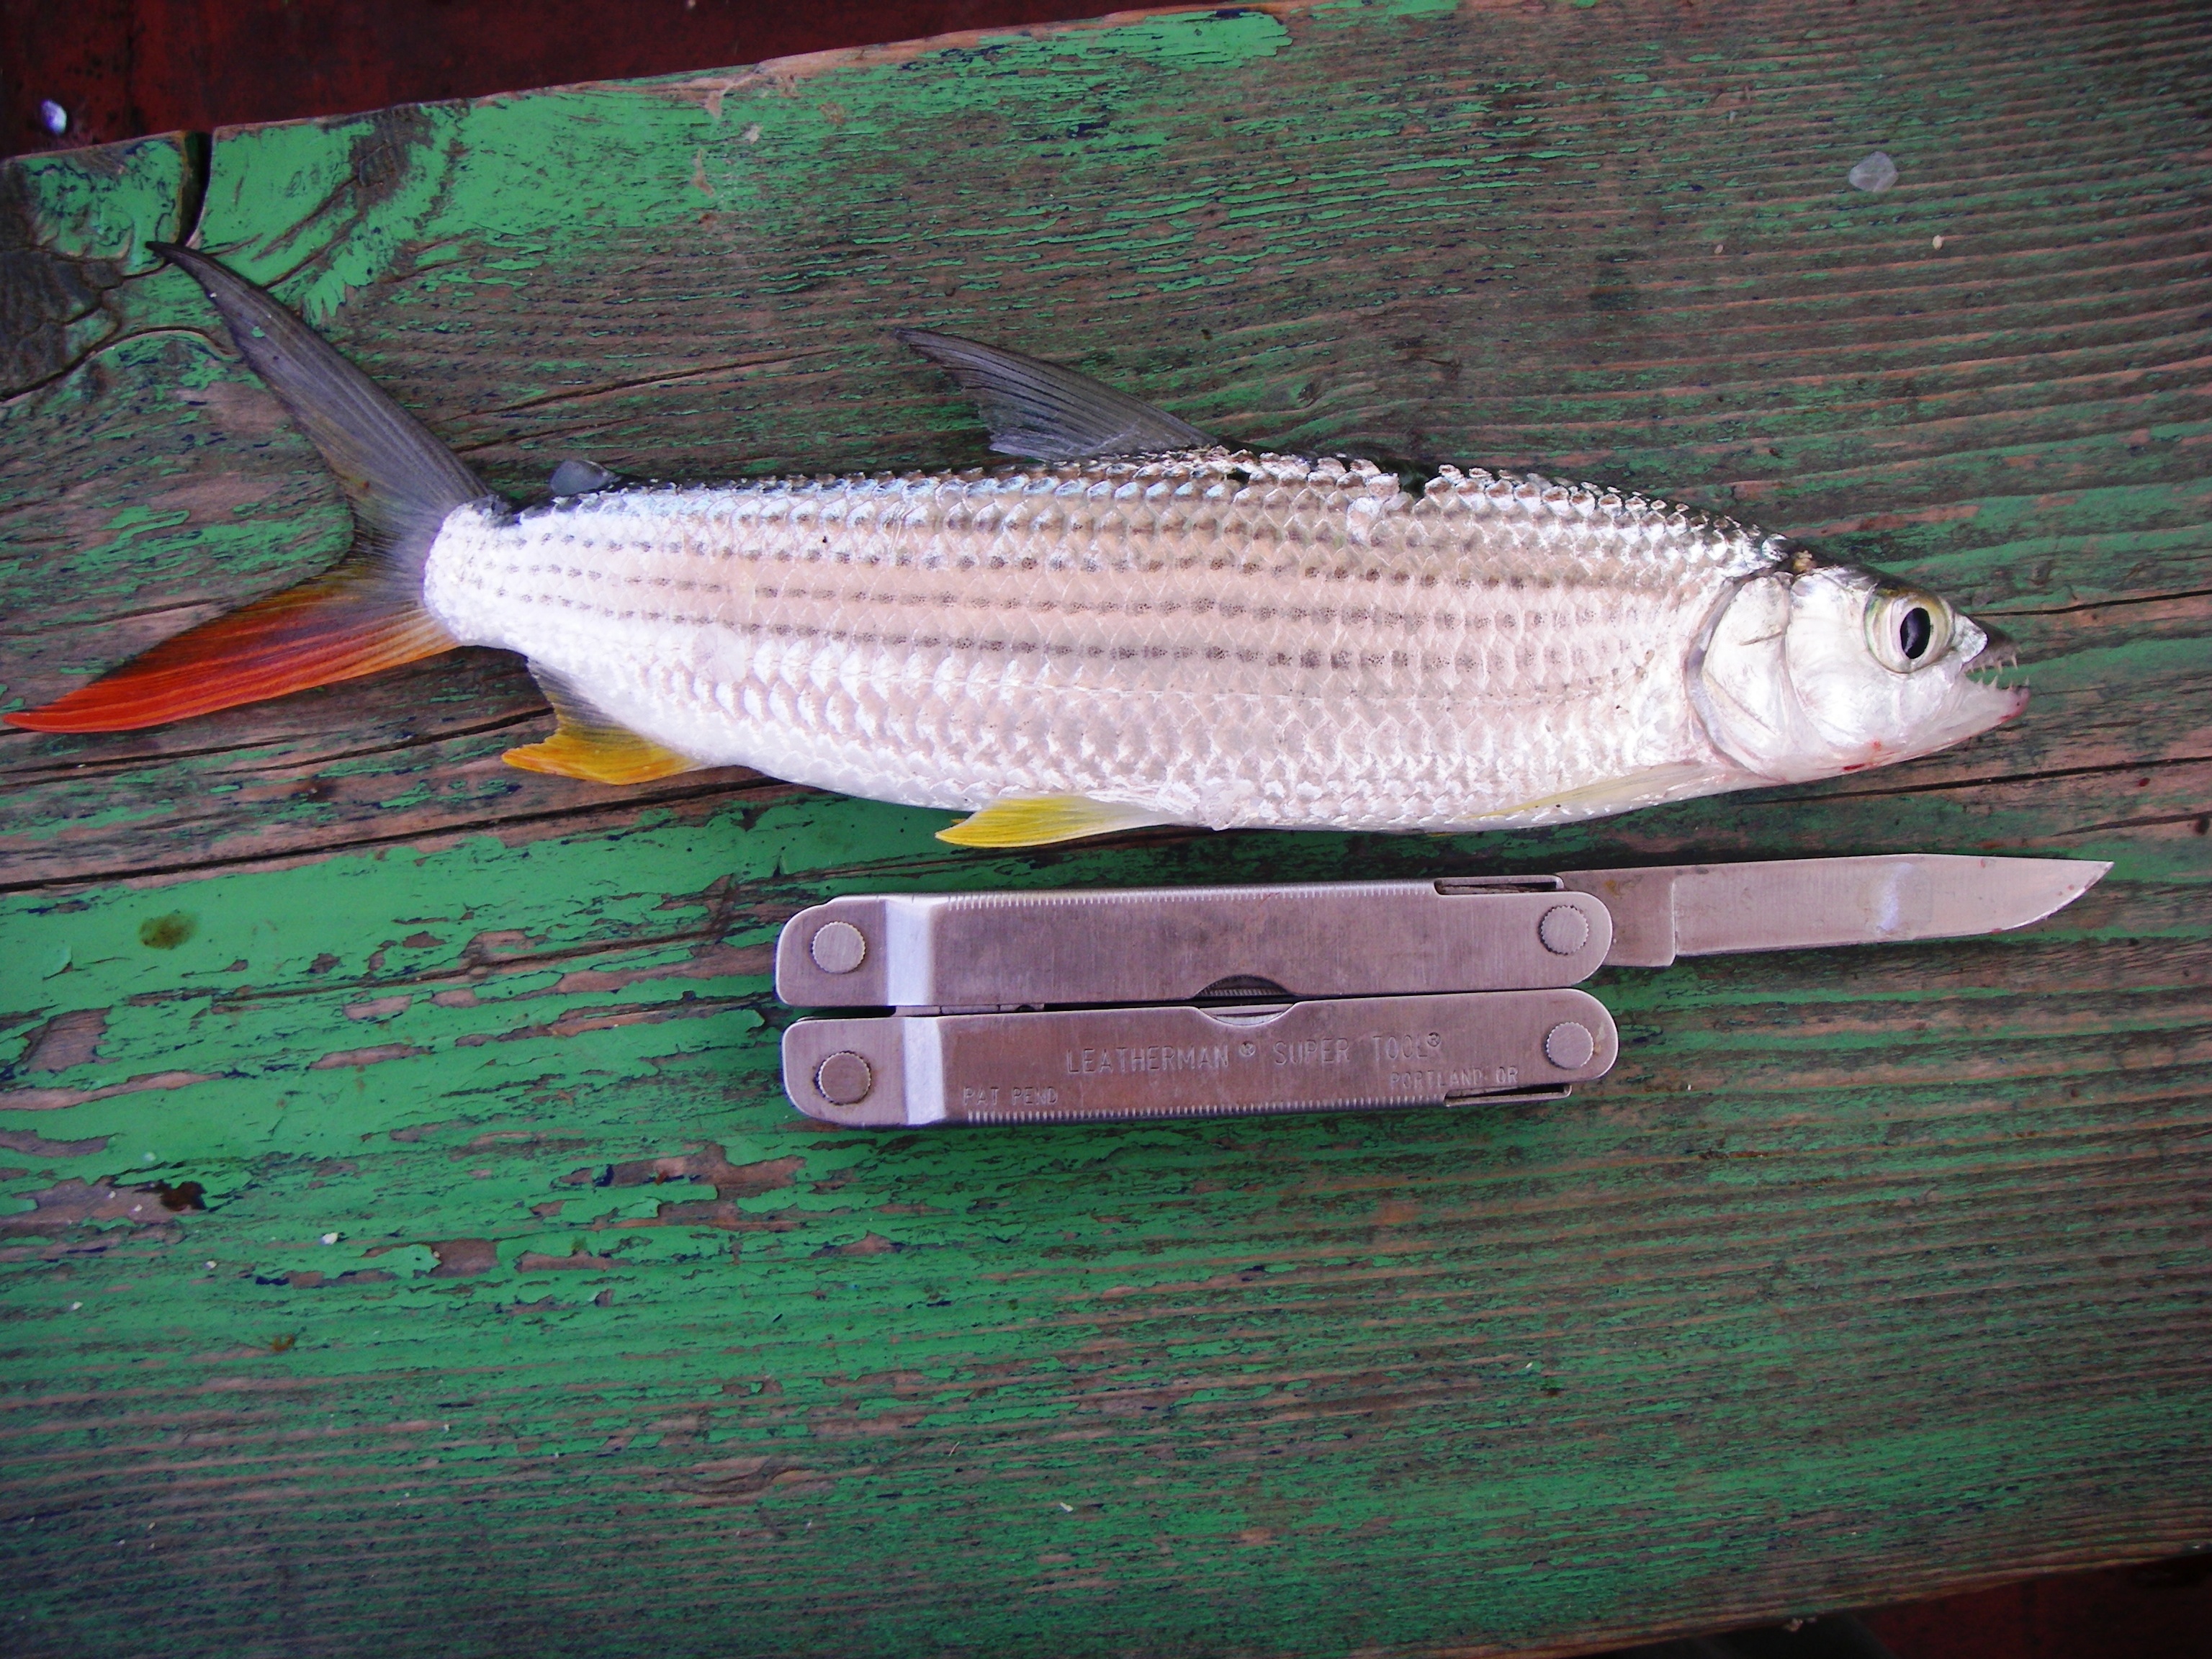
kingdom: Animalia
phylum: Chordata
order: Characiformes
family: Alestidae
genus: Hydrocynus
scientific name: Hydrocynus forskahlii
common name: Elongate tigerfish
